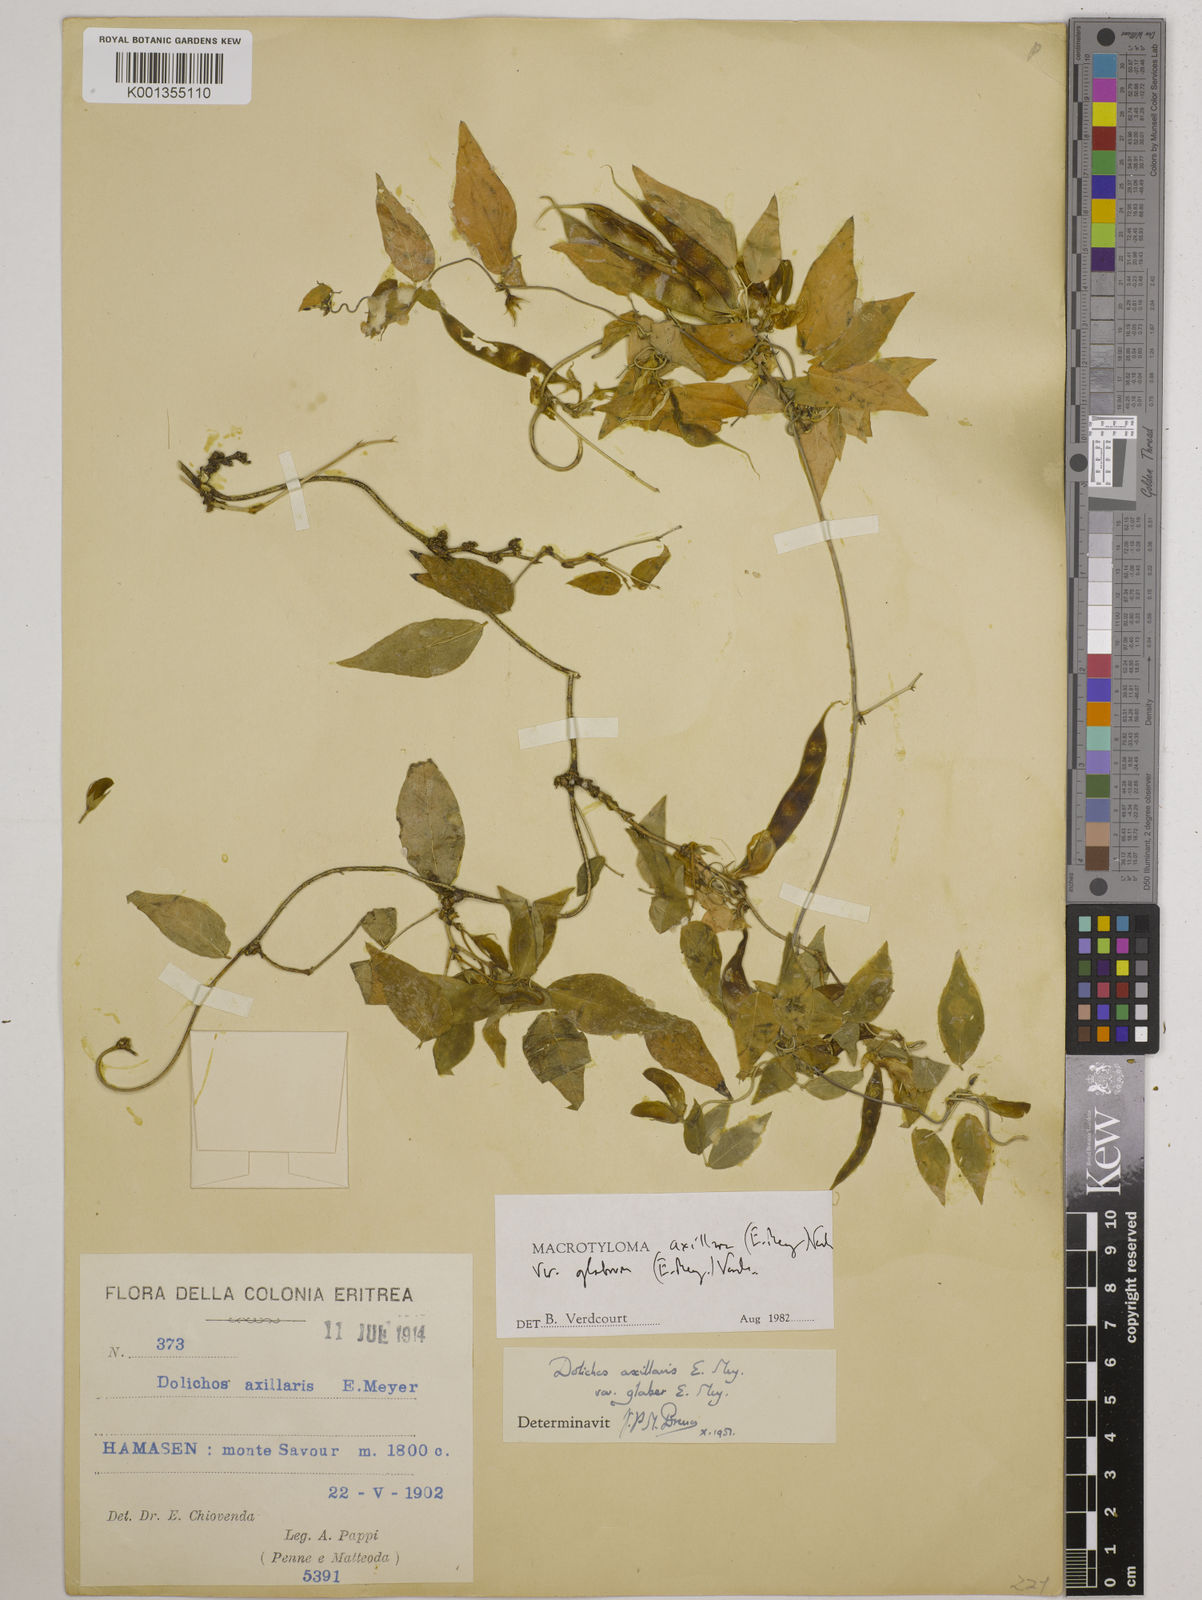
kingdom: Plantae
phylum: Tracheophyta
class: Magnoliopsida
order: Fabales
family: Fabaceae
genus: Macrotyloma
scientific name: Macrotyloma
